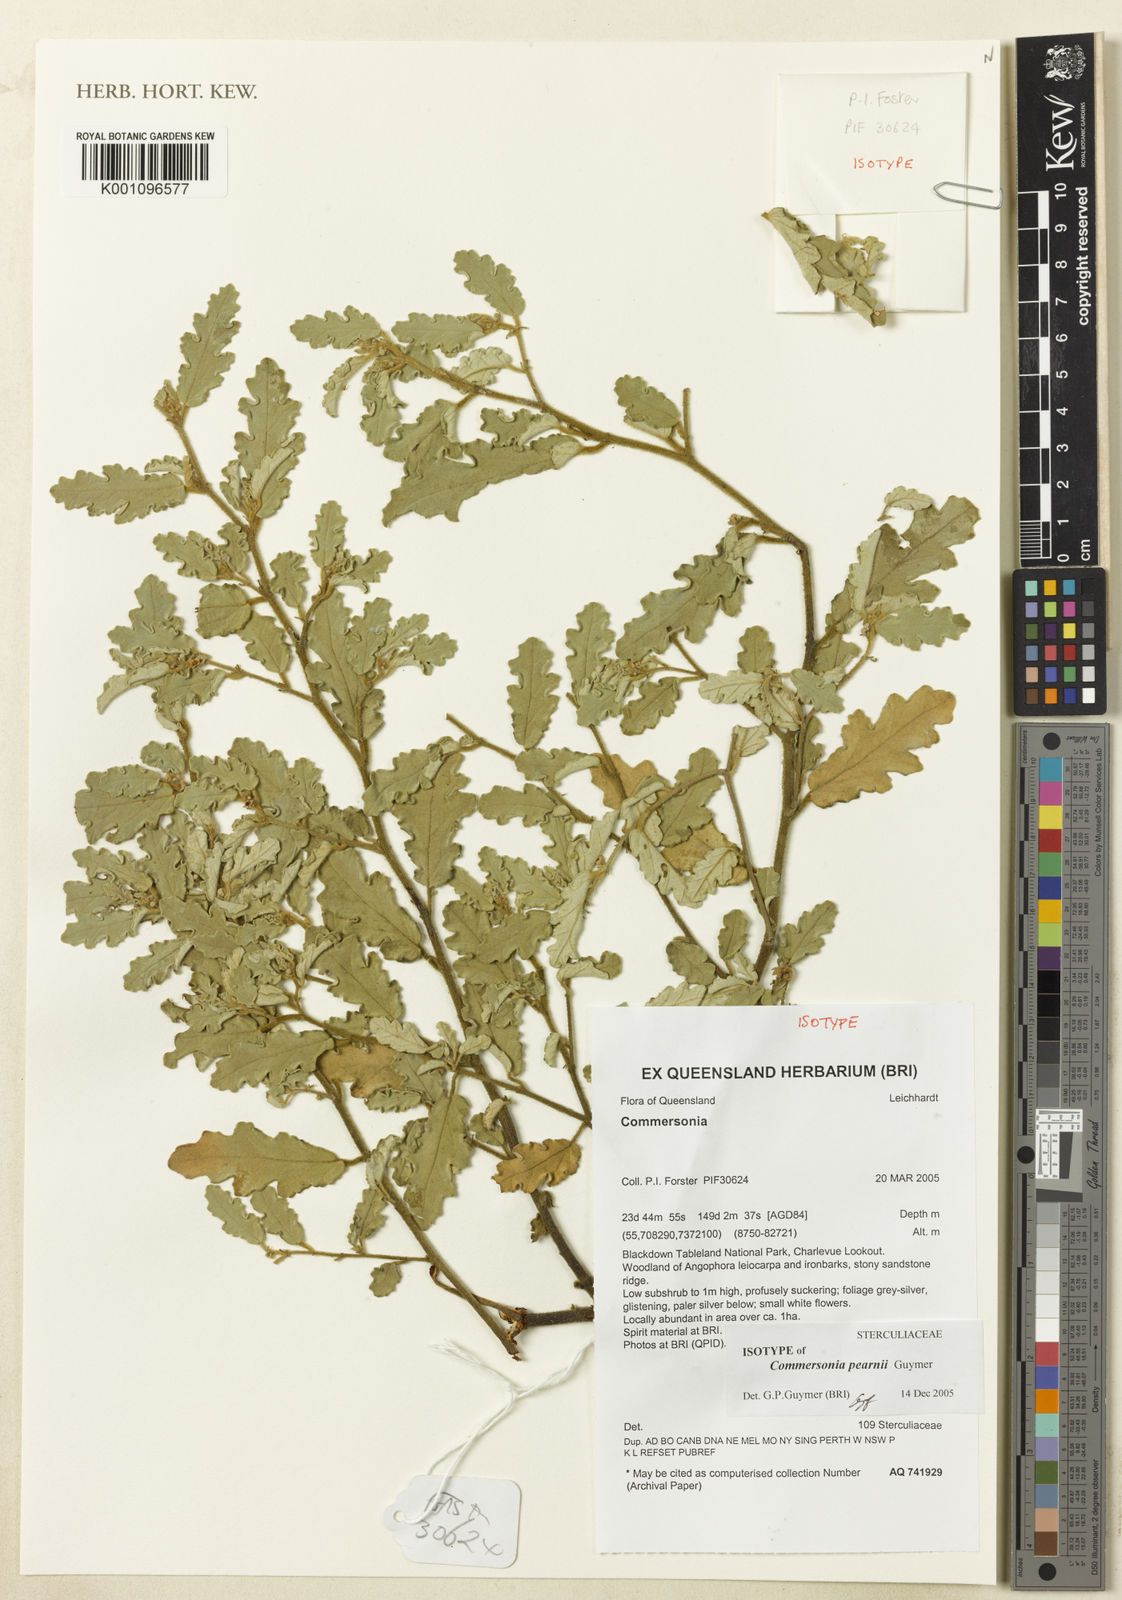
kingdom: Plantae
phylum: Tracheophyta
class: Magnoliopsida
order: Malvales
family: Malvaceae
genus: Androcalva
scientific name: Androcalva pearnii
